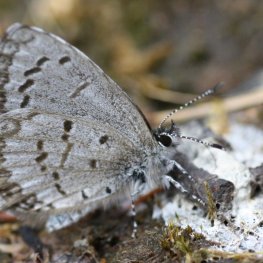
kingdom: Animalia
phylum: Arthropoda
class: Insecta
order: Lepidoptera
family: Lycaenidae
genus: Celastrina
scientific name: Celastrina lucia
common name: Northern Spring Azure
